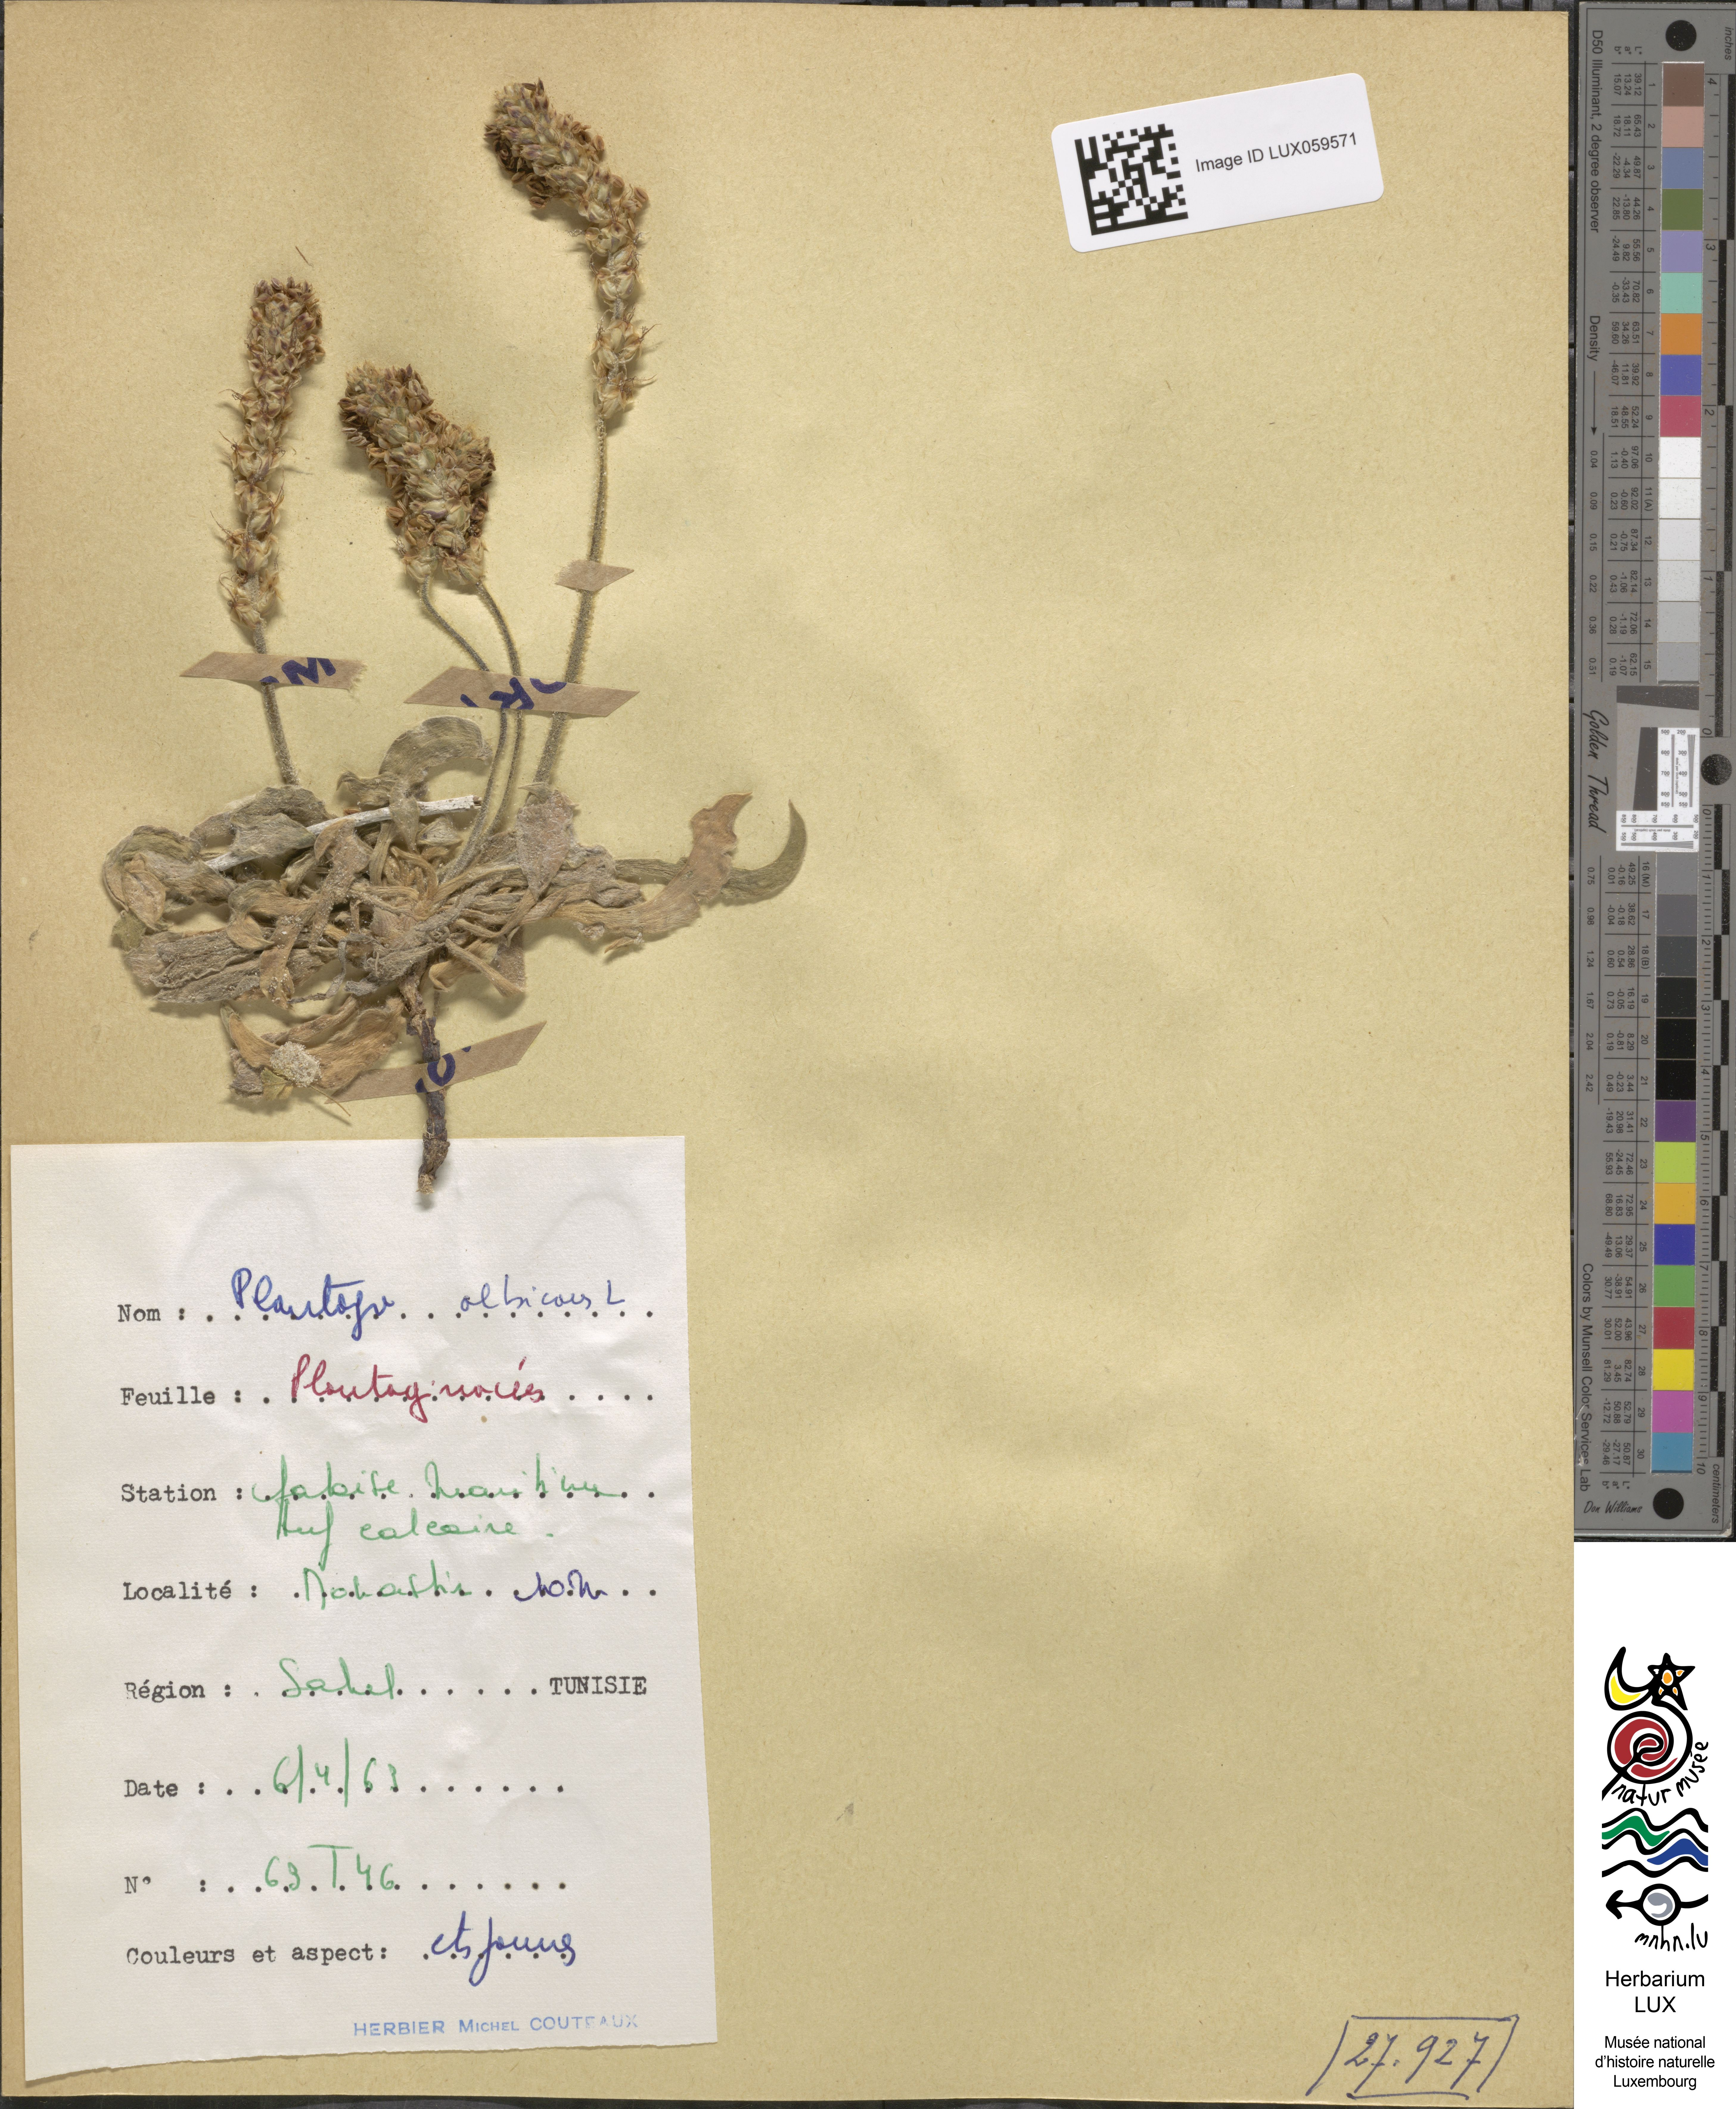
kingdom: Plantae
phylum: Tracheophyta
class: Magnoliopsida
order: Lamiales
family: Plantaginaceae
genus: Plantago
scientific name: Plantago albicans
